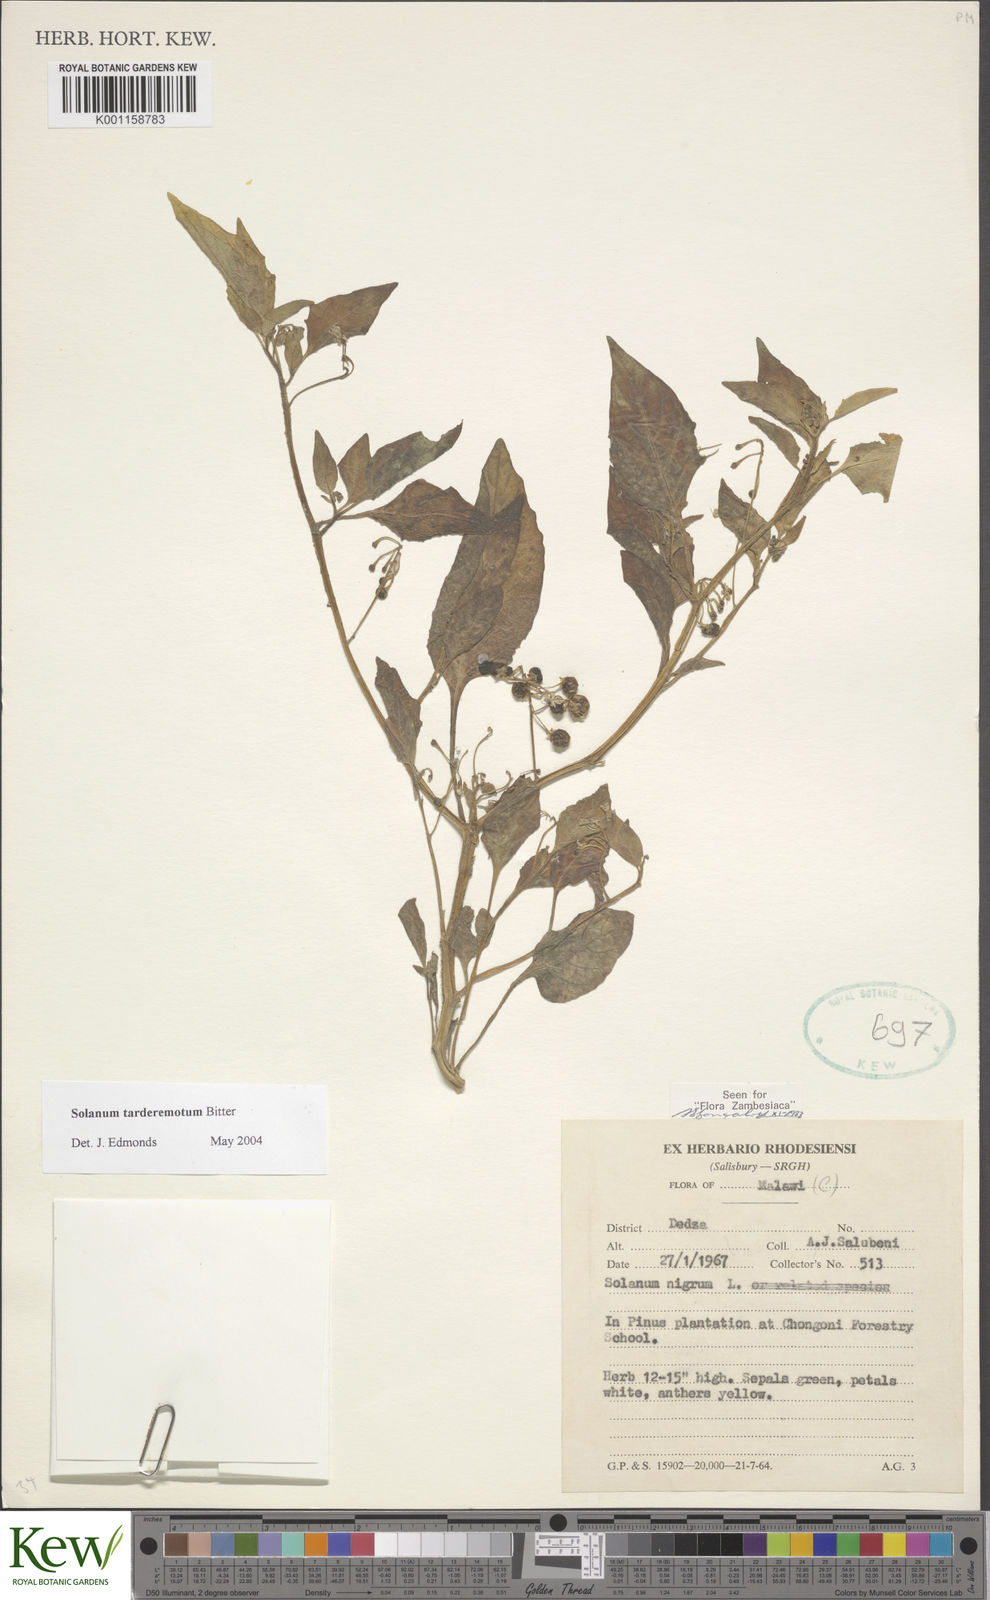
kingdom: Plantae
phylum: Tracheophyta
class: Magnoliopsida
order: Solanales
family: Solanaceae
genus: Solanum
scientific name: Solanum tarderemotum
